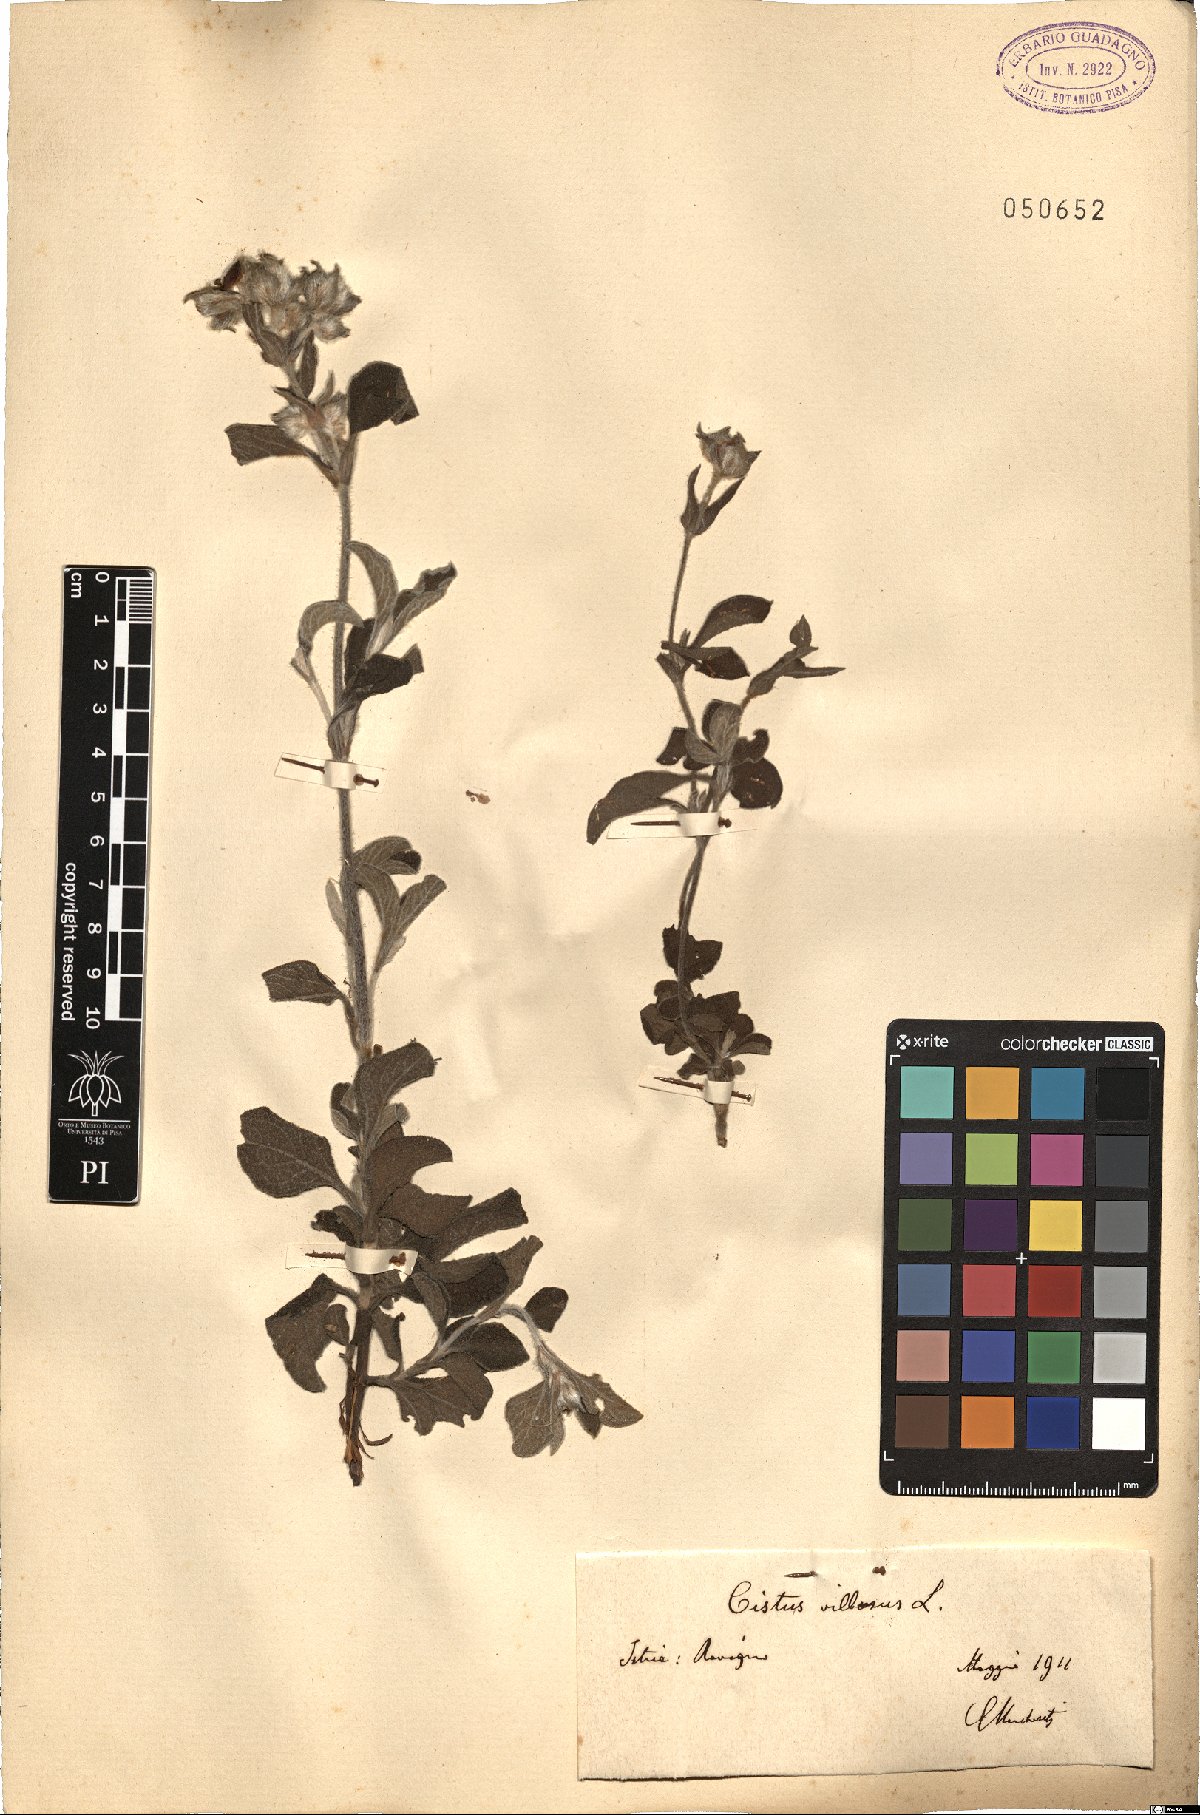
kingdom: Plantae
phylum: Tracheophyta
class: Magnoliopsida
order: Malvales
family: Cistaceae
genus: Cistus
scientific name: Cistus creticus
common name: Cretan rockrose
